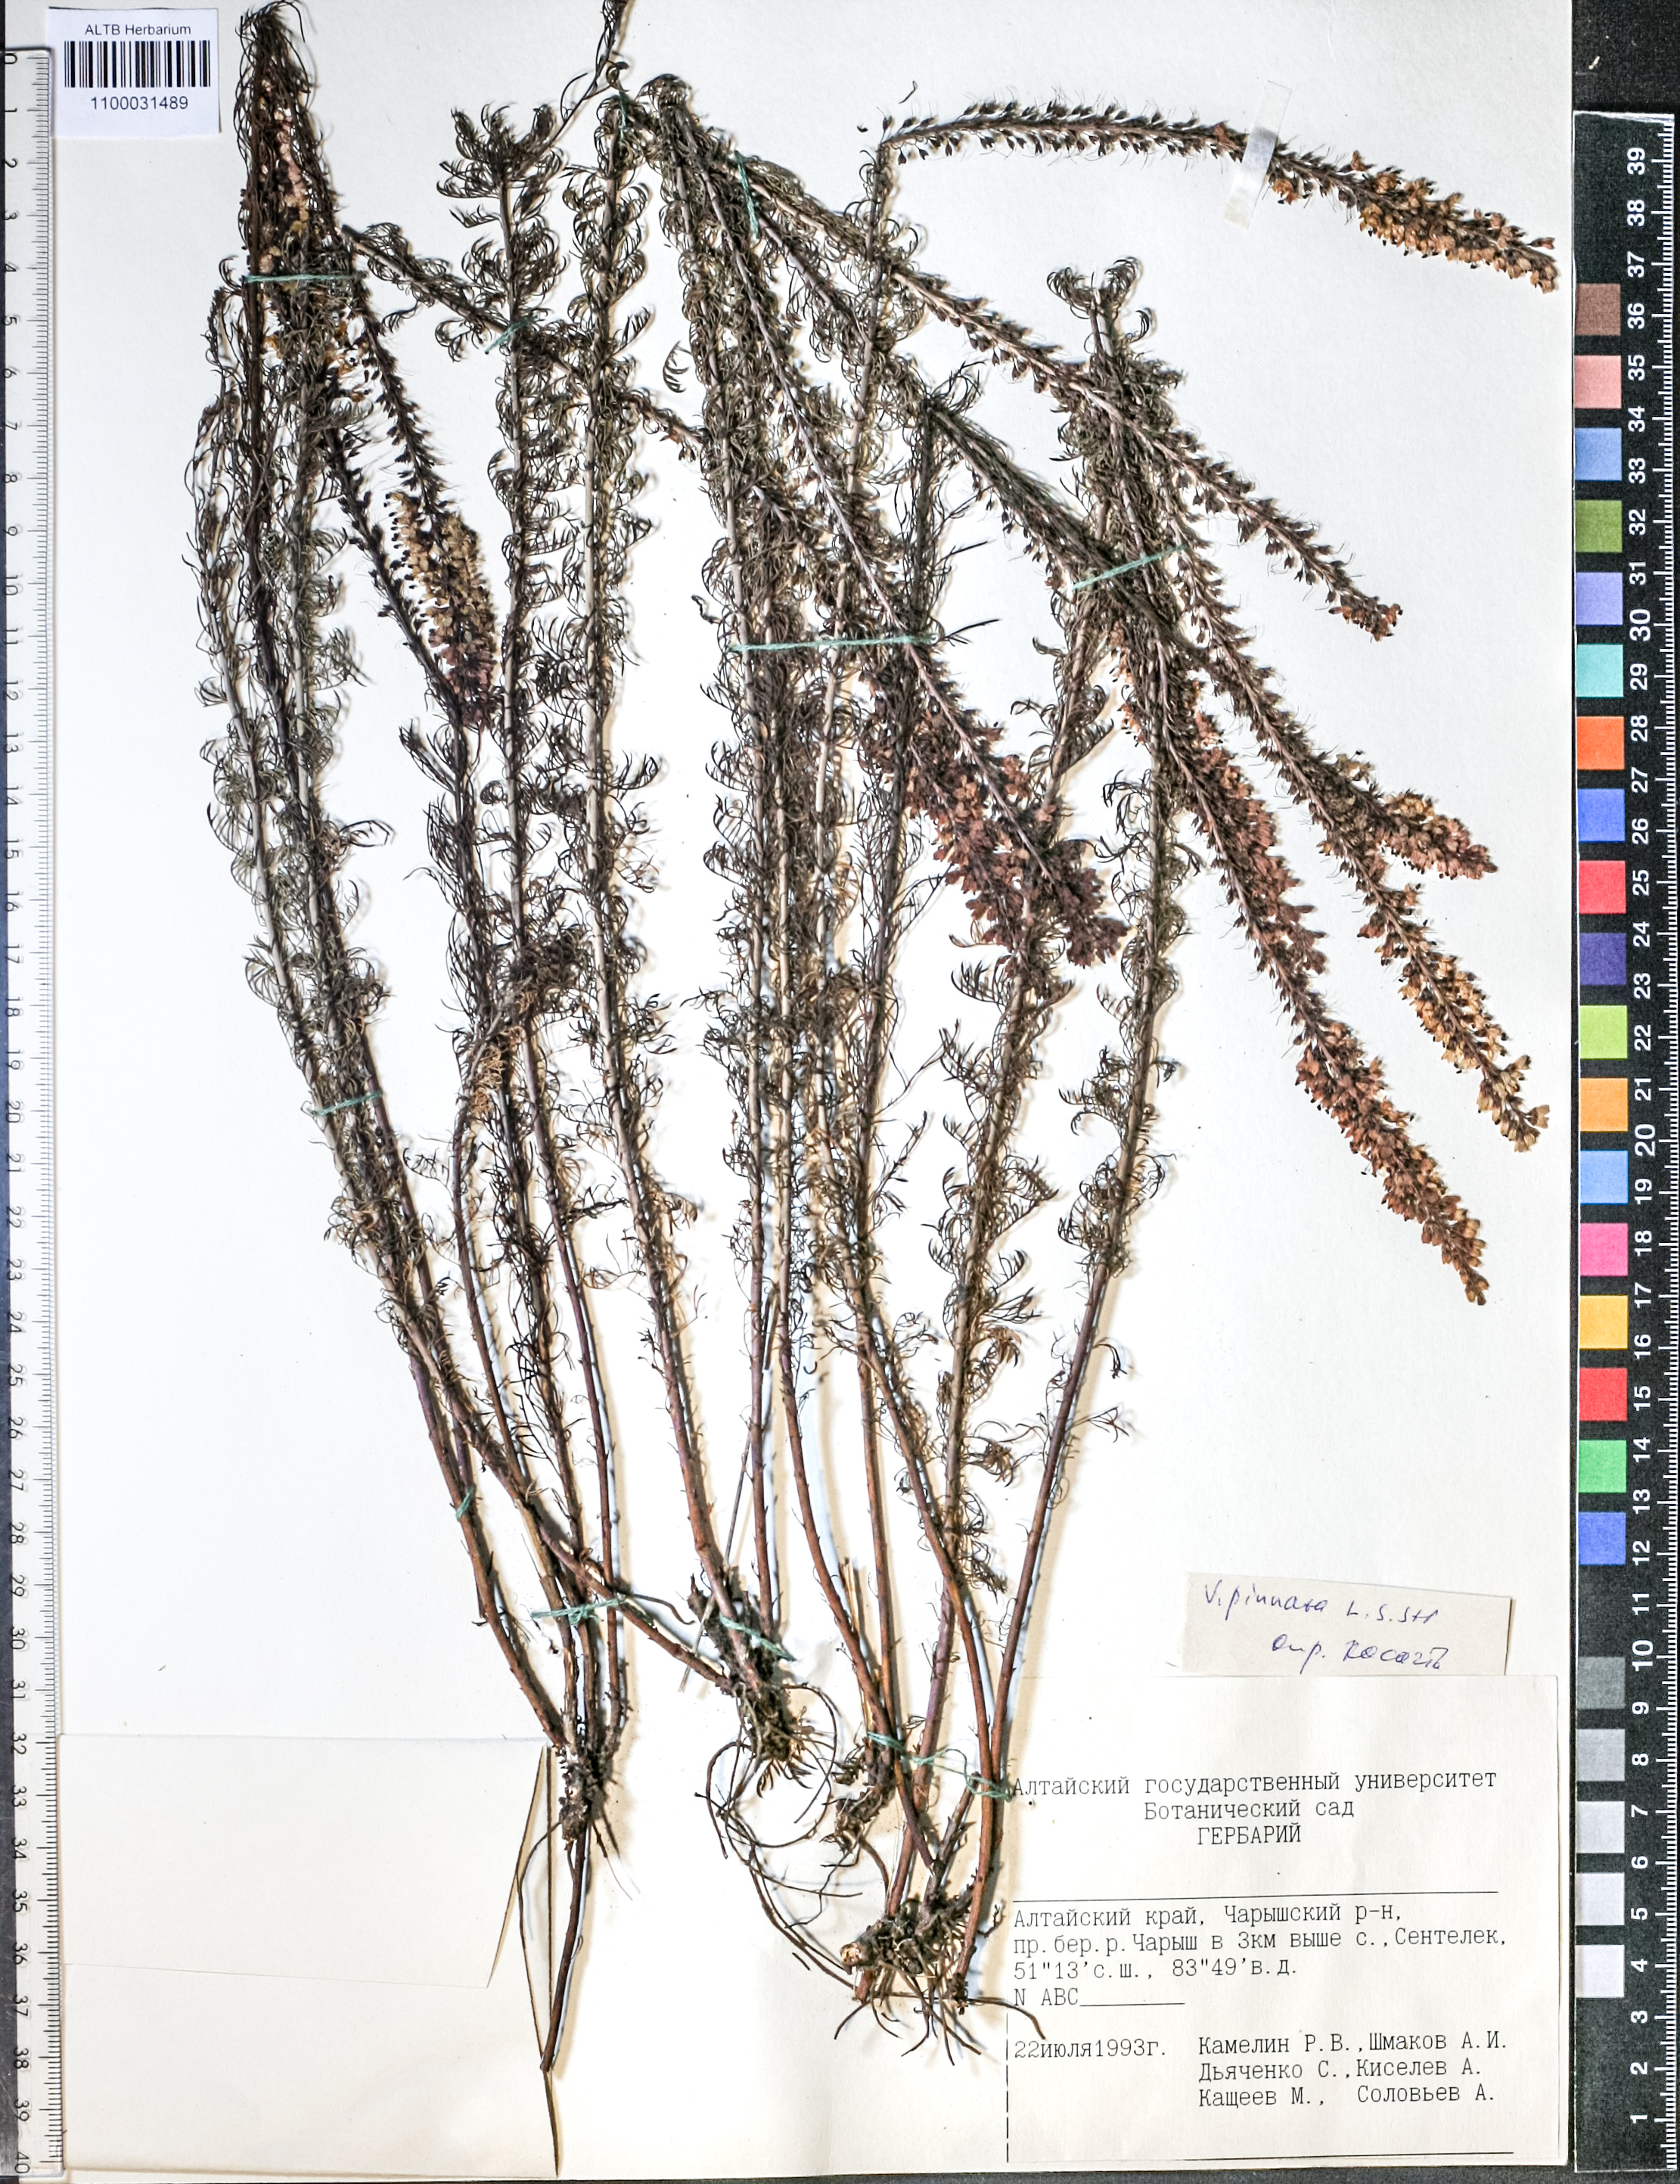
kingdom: Plantae
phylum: Tracheophyta
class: Magnoliopsida
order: Lamiales
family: Plantaginaceae
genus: Veronica
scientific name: Veronica pinnata
